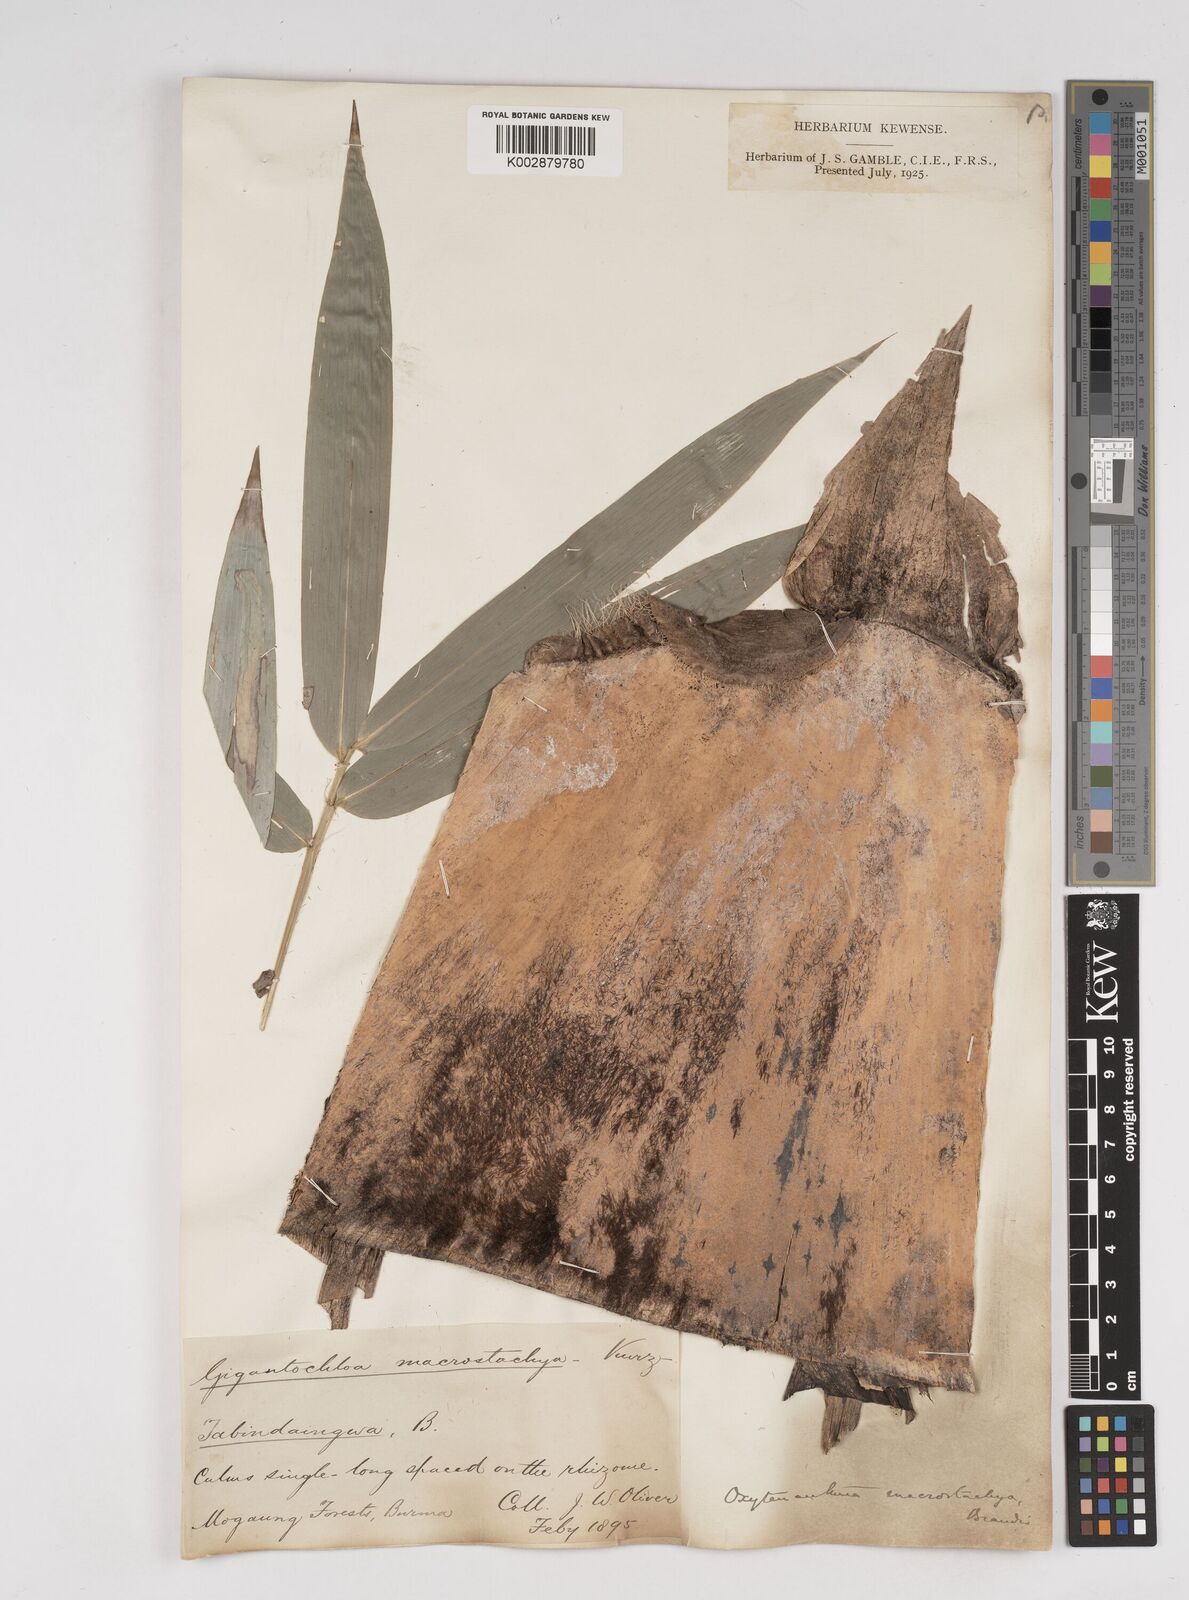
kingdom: Plantae
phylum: Tracheophyta
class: Liliopsida
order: Poales
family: Poaceae
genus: Gigantochloa
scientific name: Gigantochloa macrostachya
